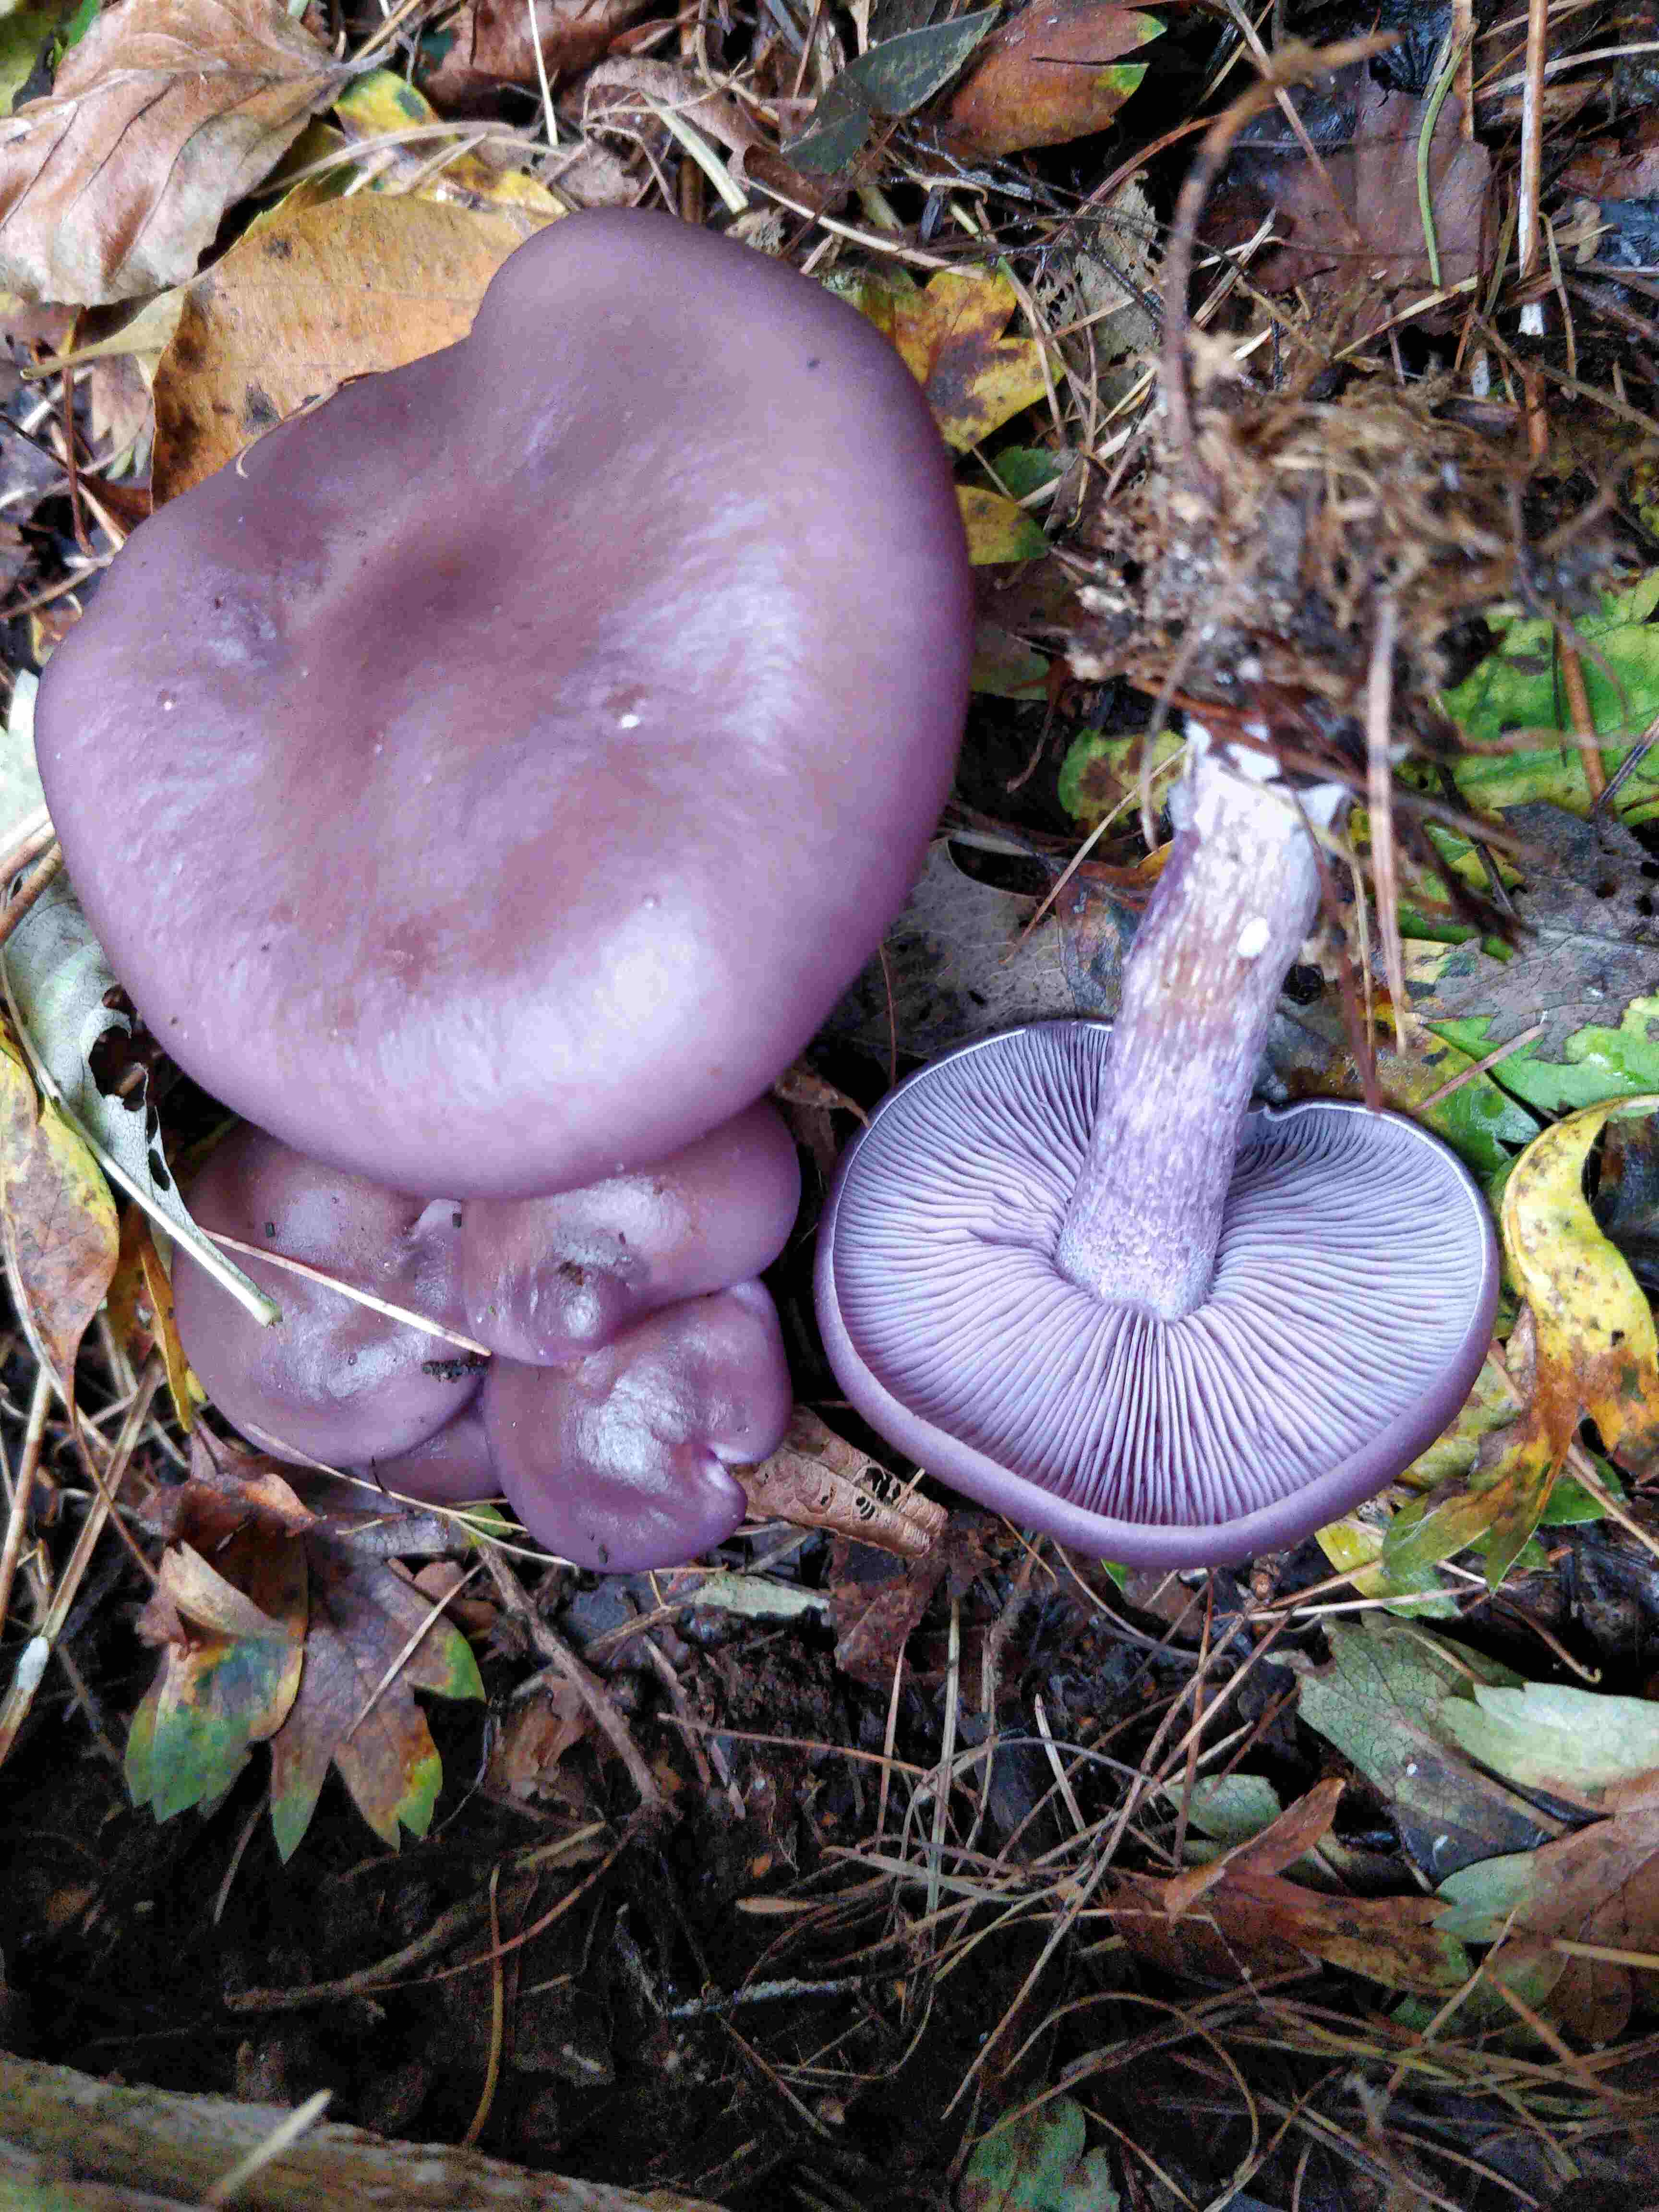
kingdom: Fungi
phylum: Basidiomycota
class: Agaricomycetes
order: Agaricales
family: Tricholomataceae
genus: Lepista
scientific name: Lepista nuda
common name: violet hekseringshat
